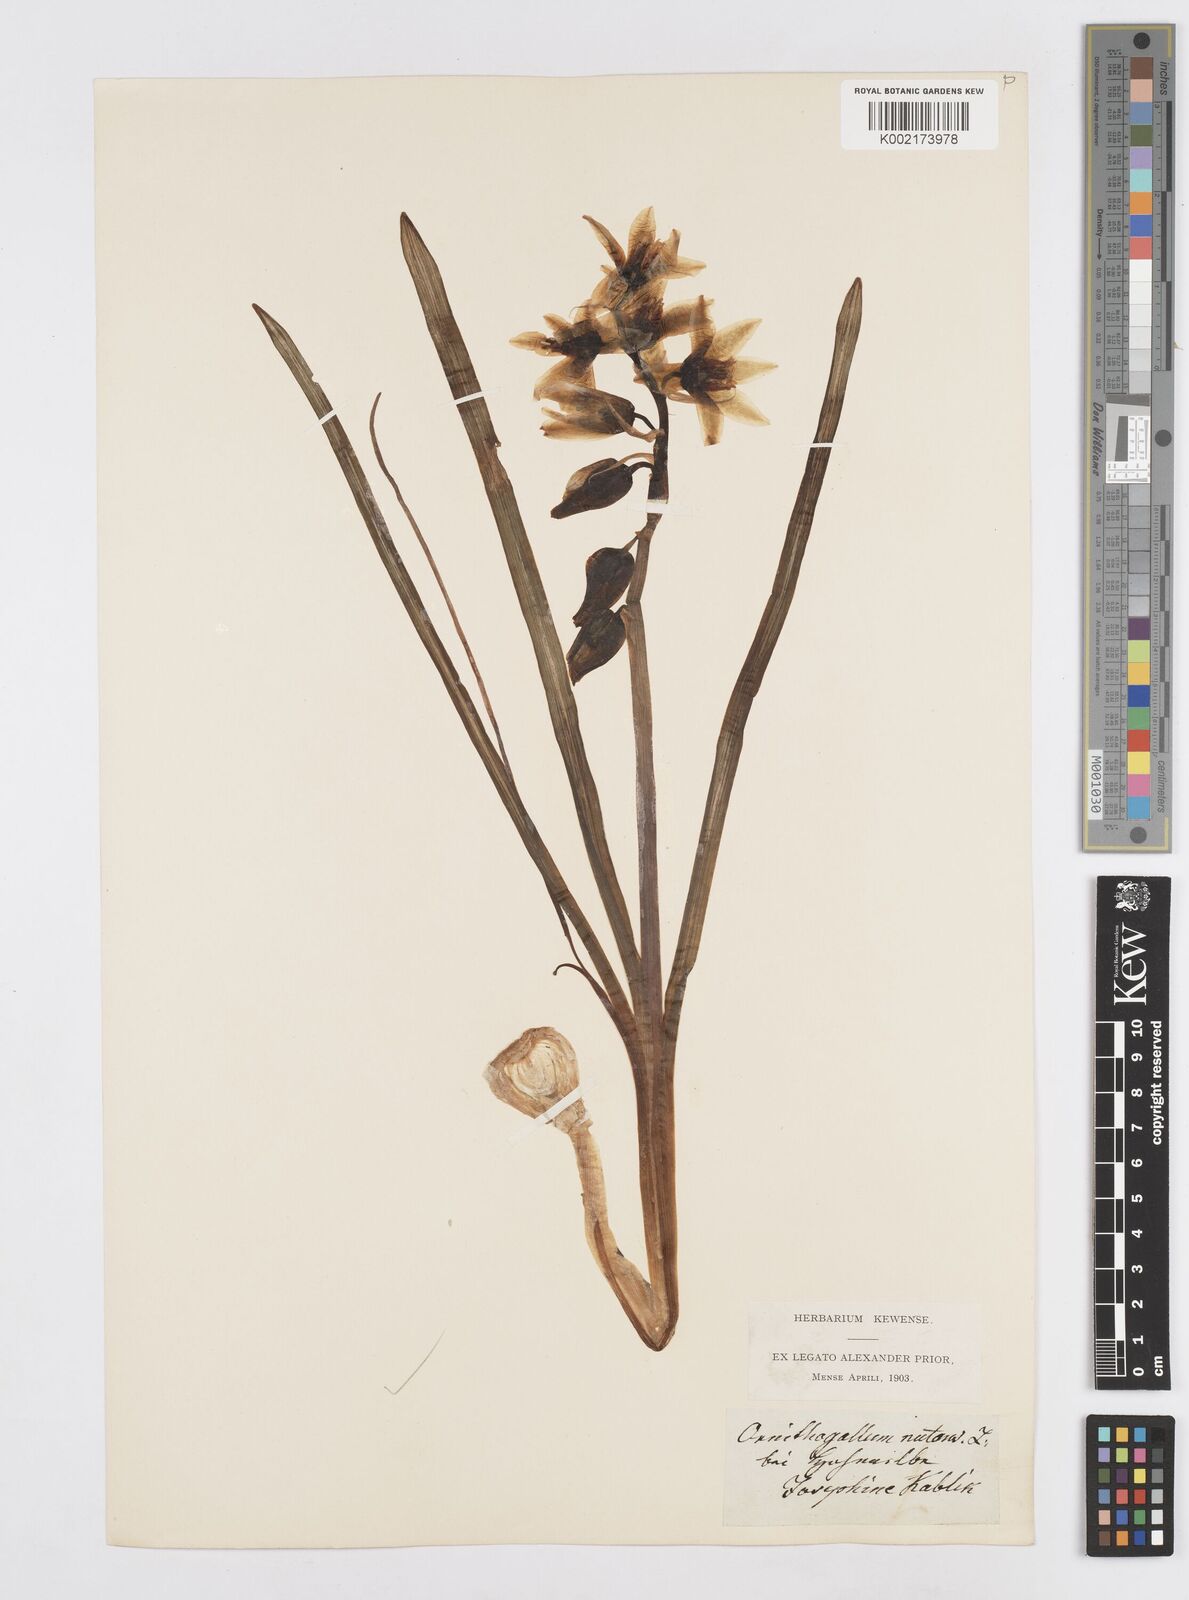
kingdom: Plantae
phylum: Tracheophyta
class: Liliopsida
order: Asparagales
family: Asparagaceae
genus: Ornithogalum
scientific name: Ornithogalum nutans
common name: Drooping star-of-bethlehem
